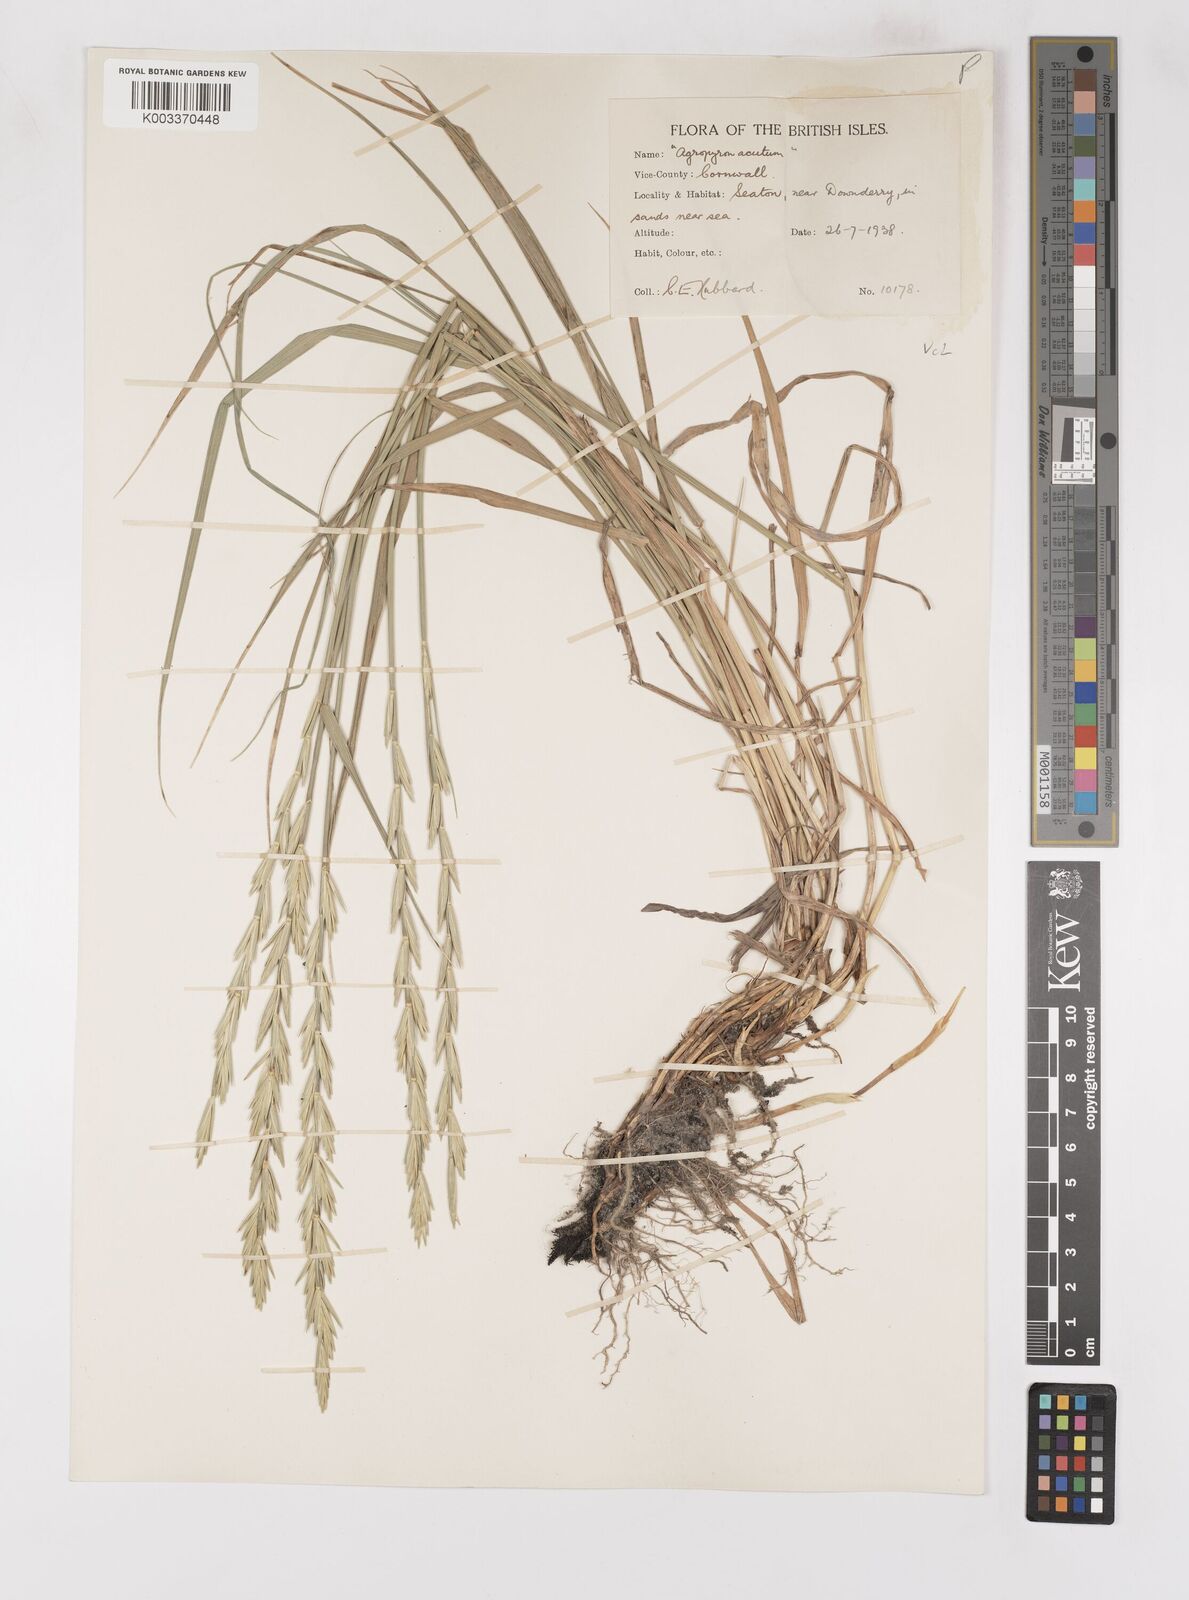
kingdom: Plantae
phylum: Tracheophyta
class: Liliopsida
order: Poales
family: Poaceae
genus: Thinoelymus
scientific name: Thinoelymus obtusiusculus
